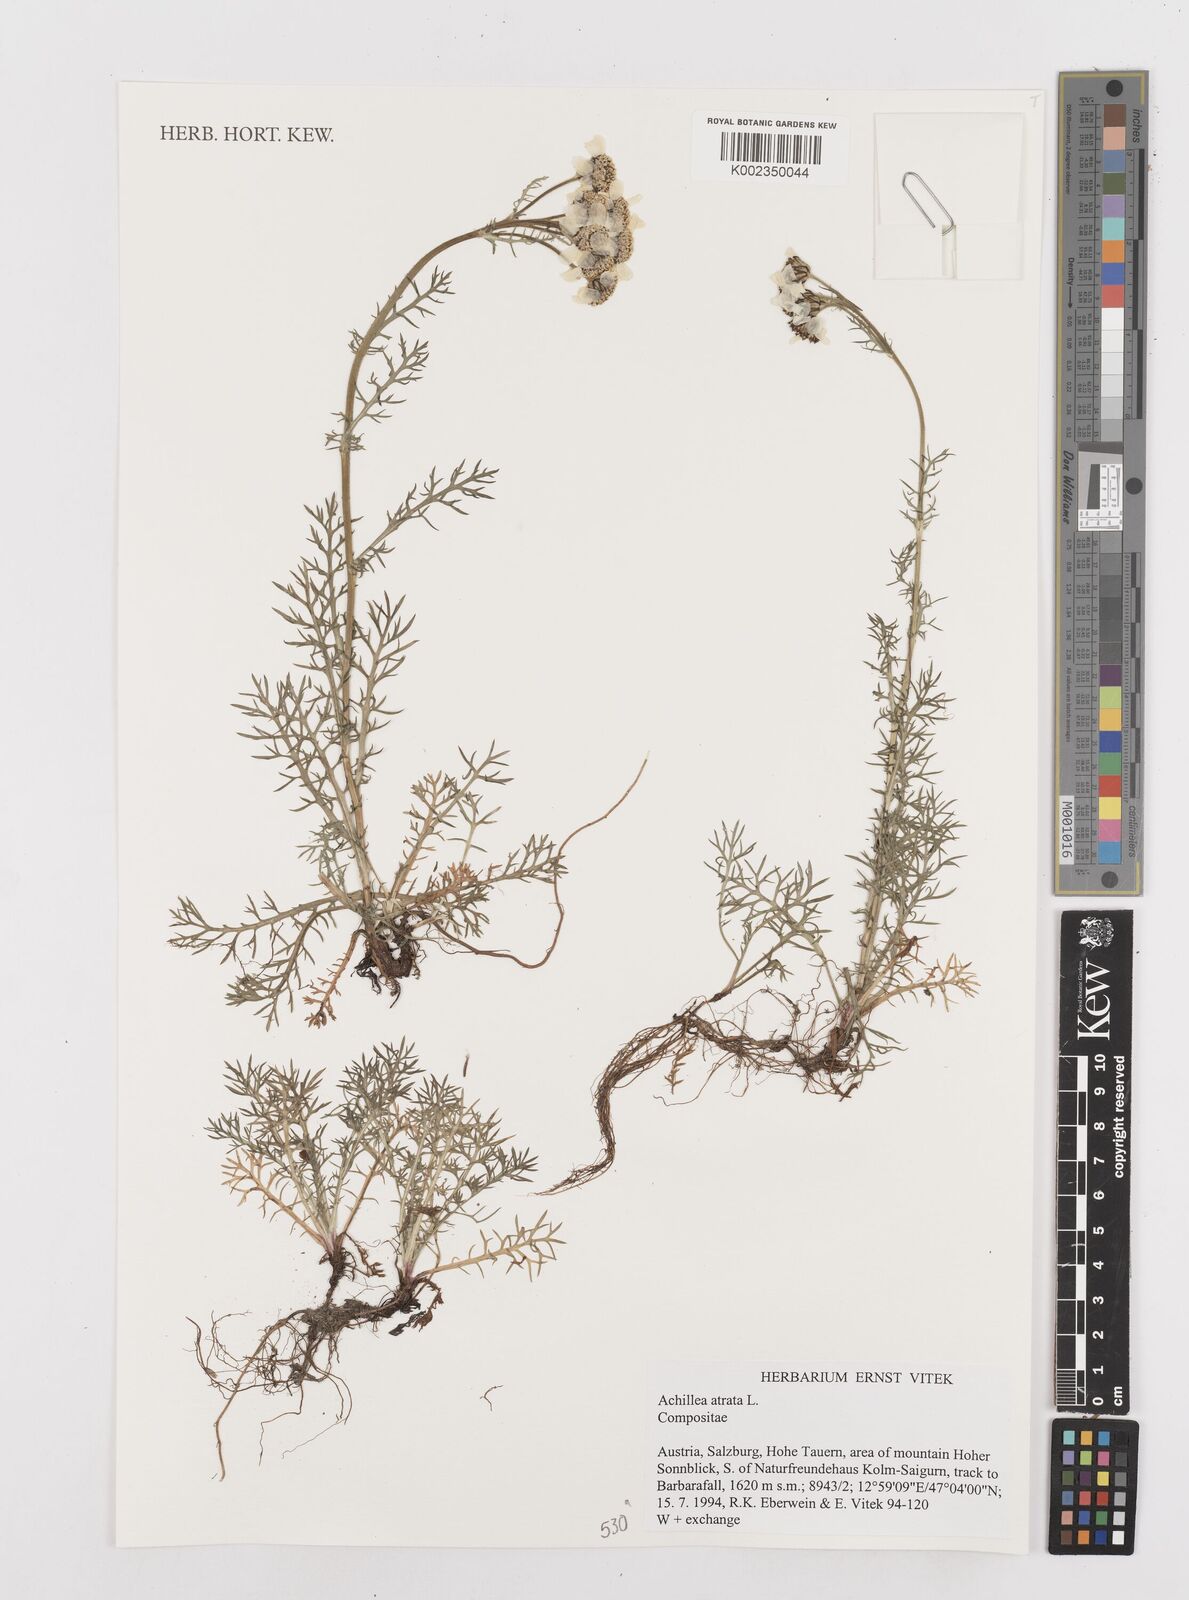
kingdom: Plantae
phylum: Tracheophyta
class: Magnoliopsida
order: Asterales
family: Asteraceae
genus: Achillea
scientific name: Achillea atrata
